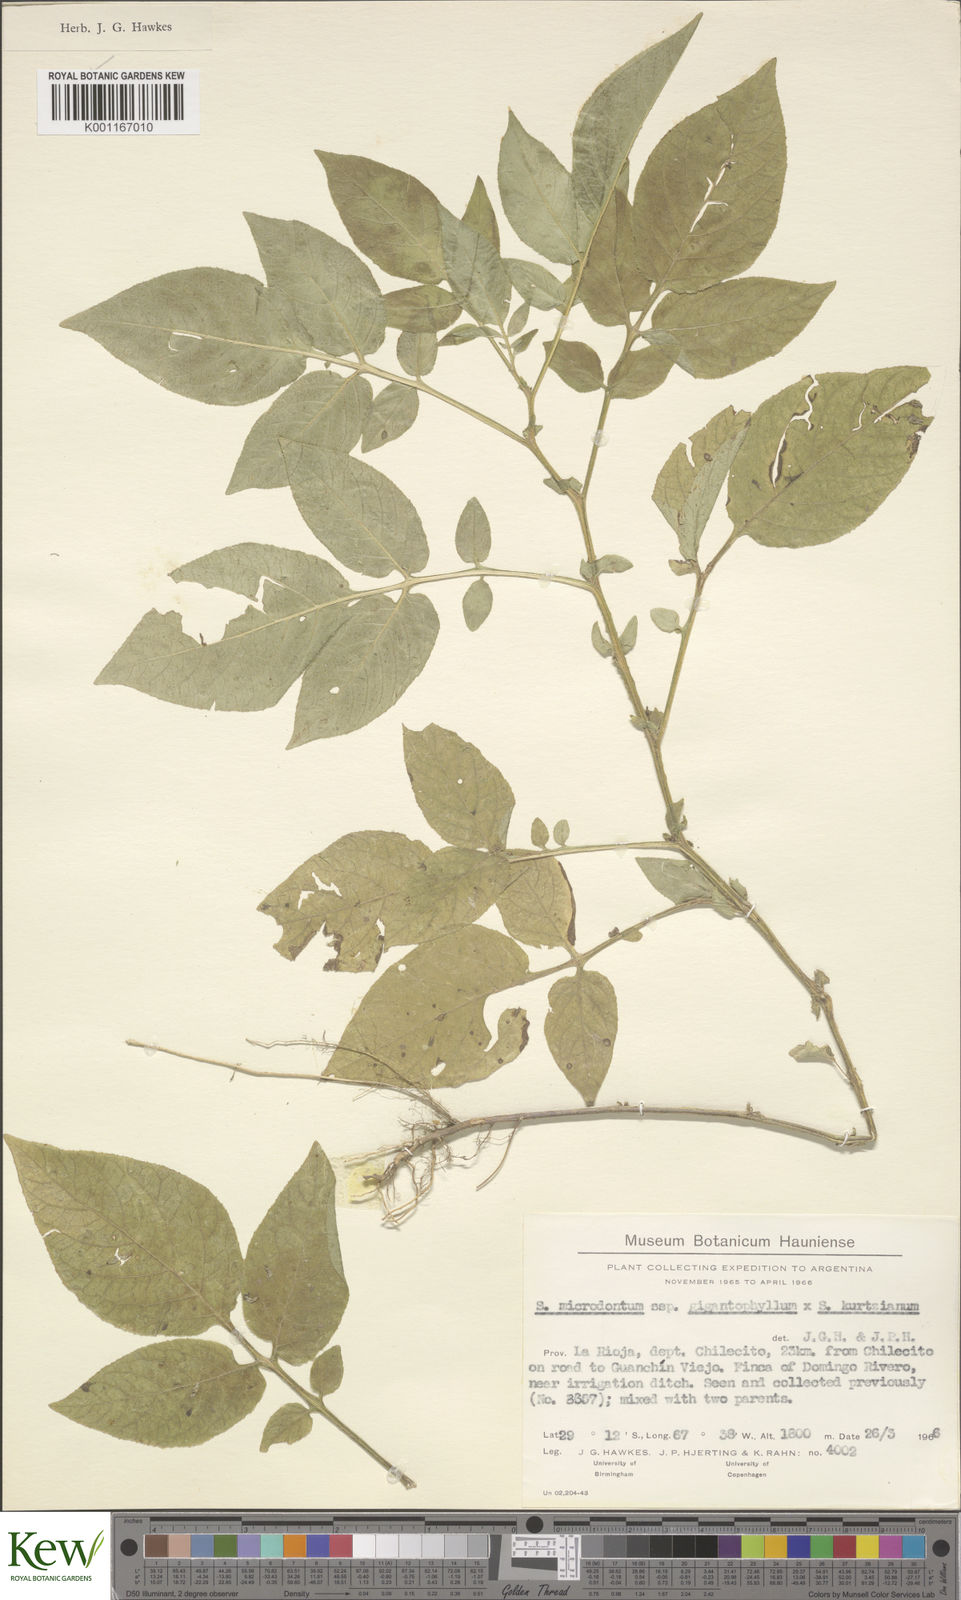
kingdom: Plantae
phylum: Tracheophyta
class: Magnoliopsida
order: Solanales
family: Solanaceae
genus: Solanum
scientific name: Solanum rechei
